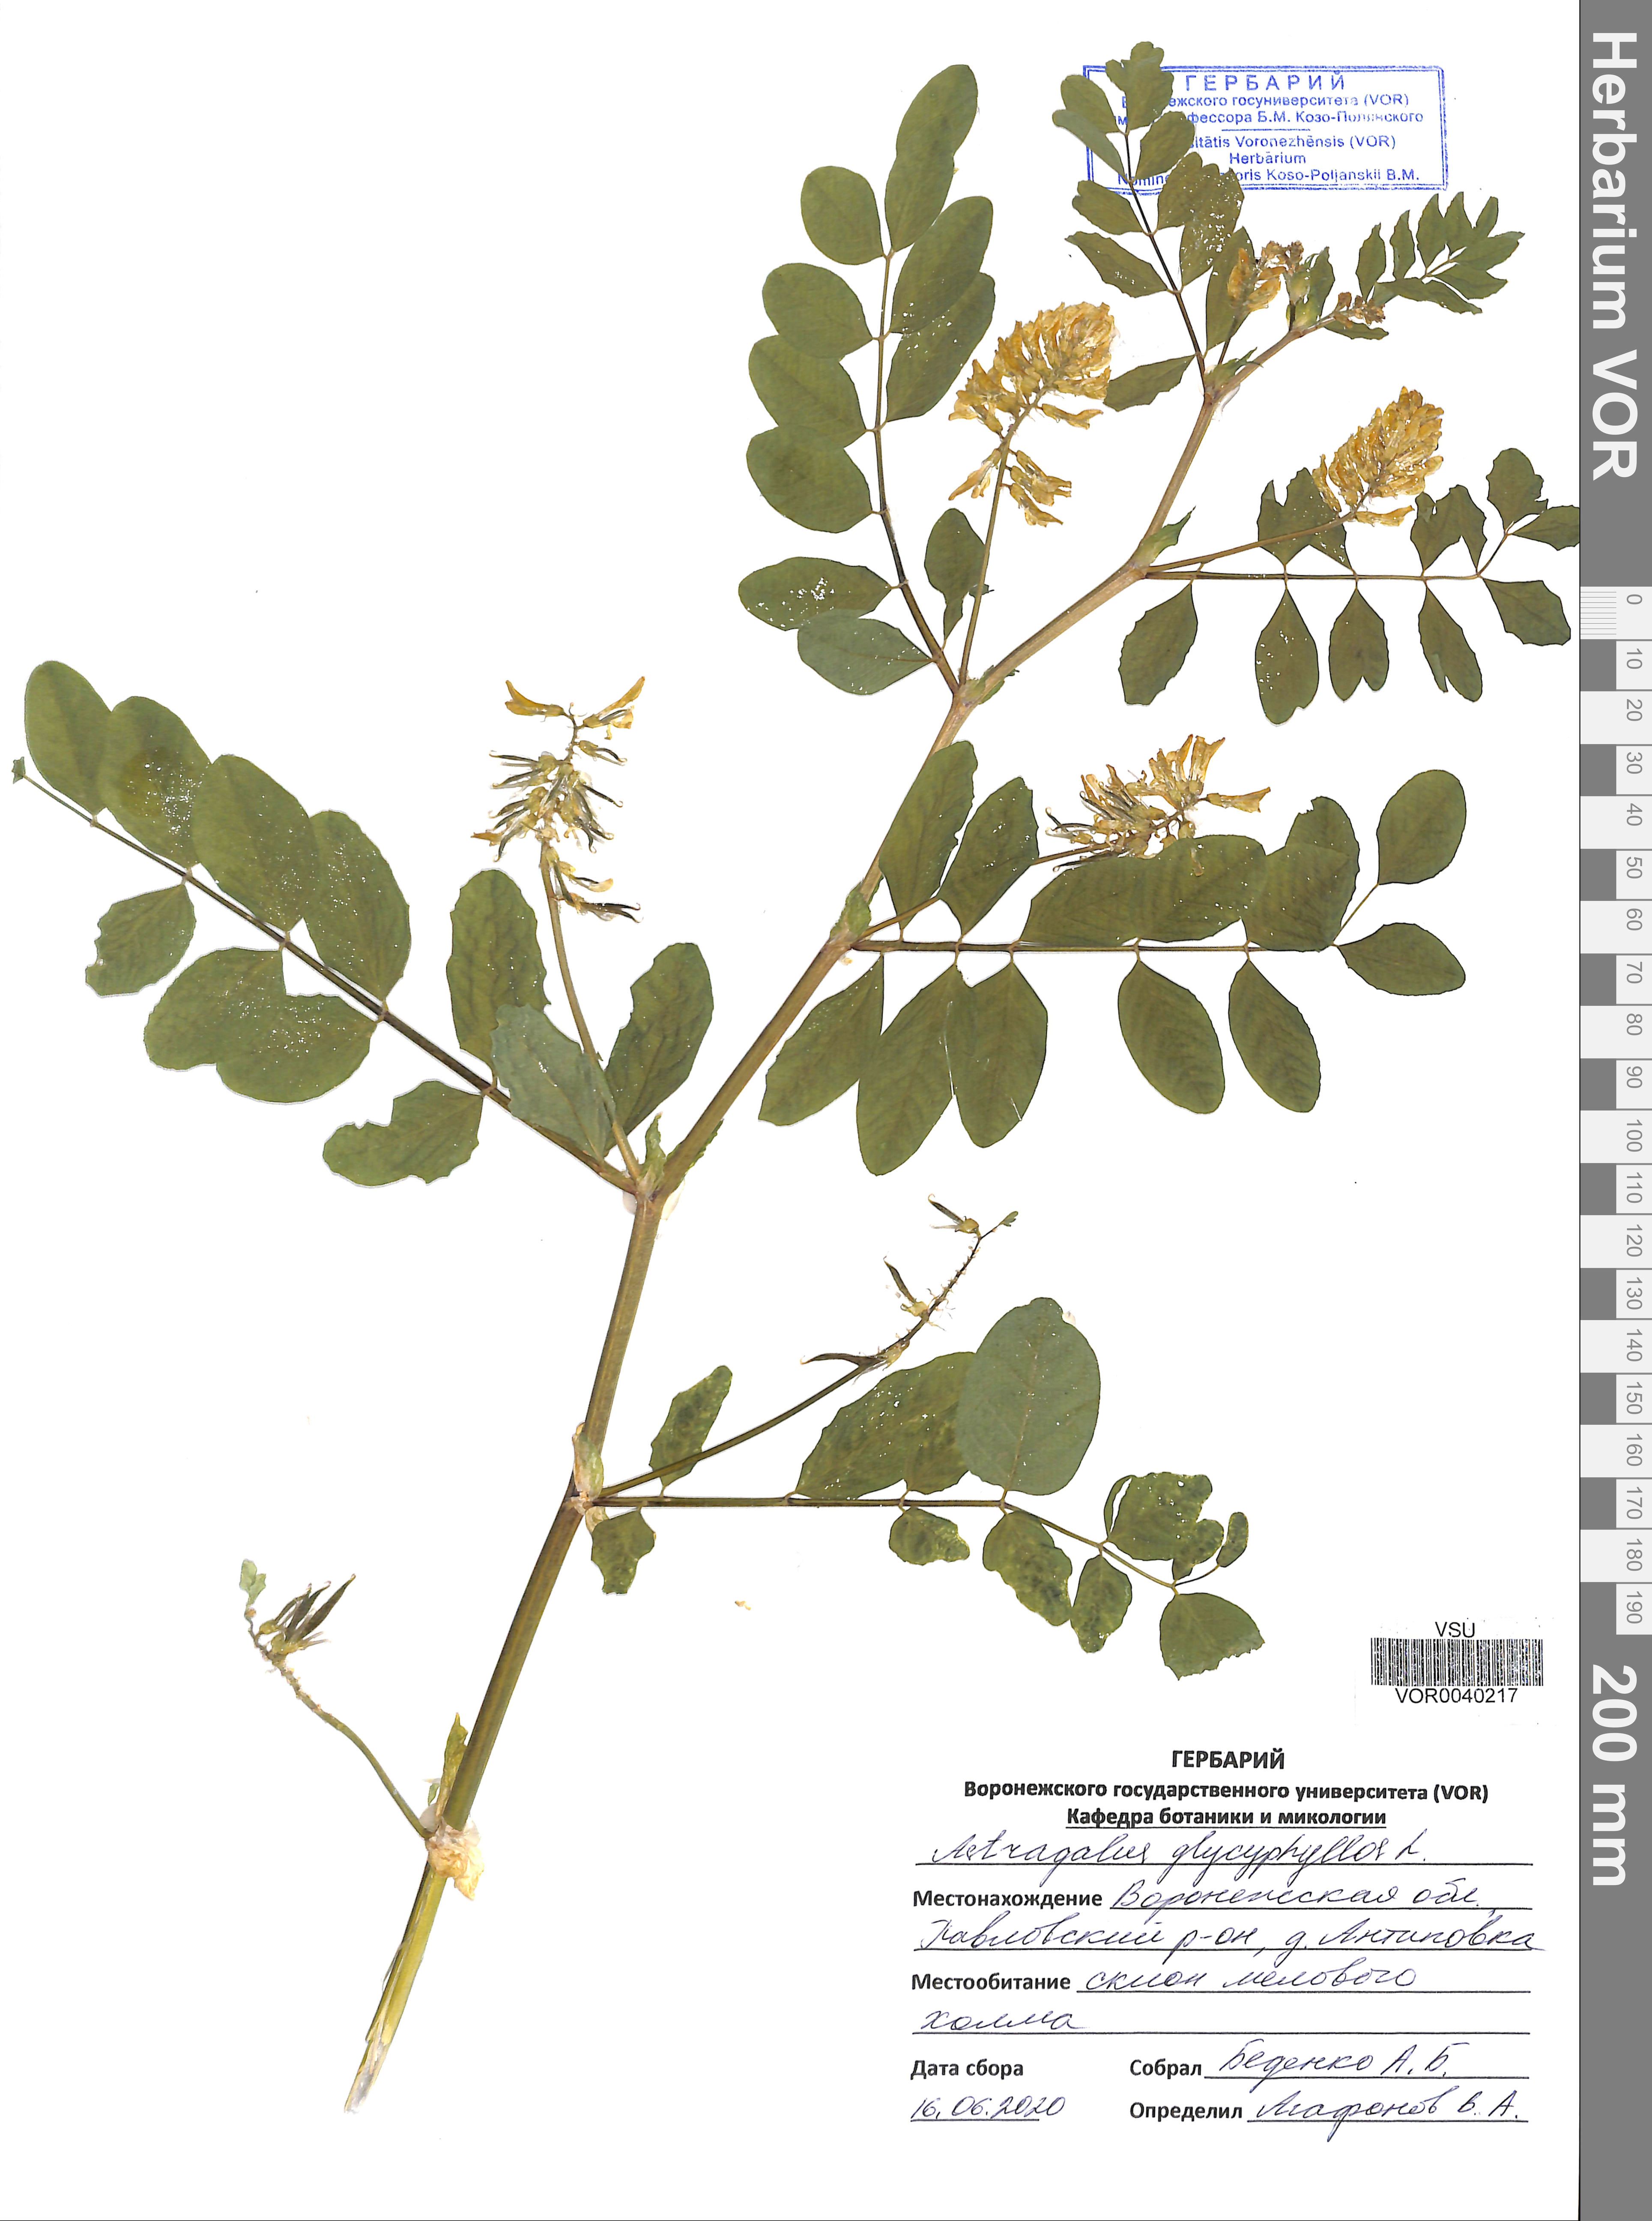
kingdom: Plantae
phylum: Tracheophyta
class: Magnoliopsida
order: Fabales
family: Fabaceae
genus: Astragalus
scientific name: Astragalus glycyphyllos
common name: Wild liquorice
